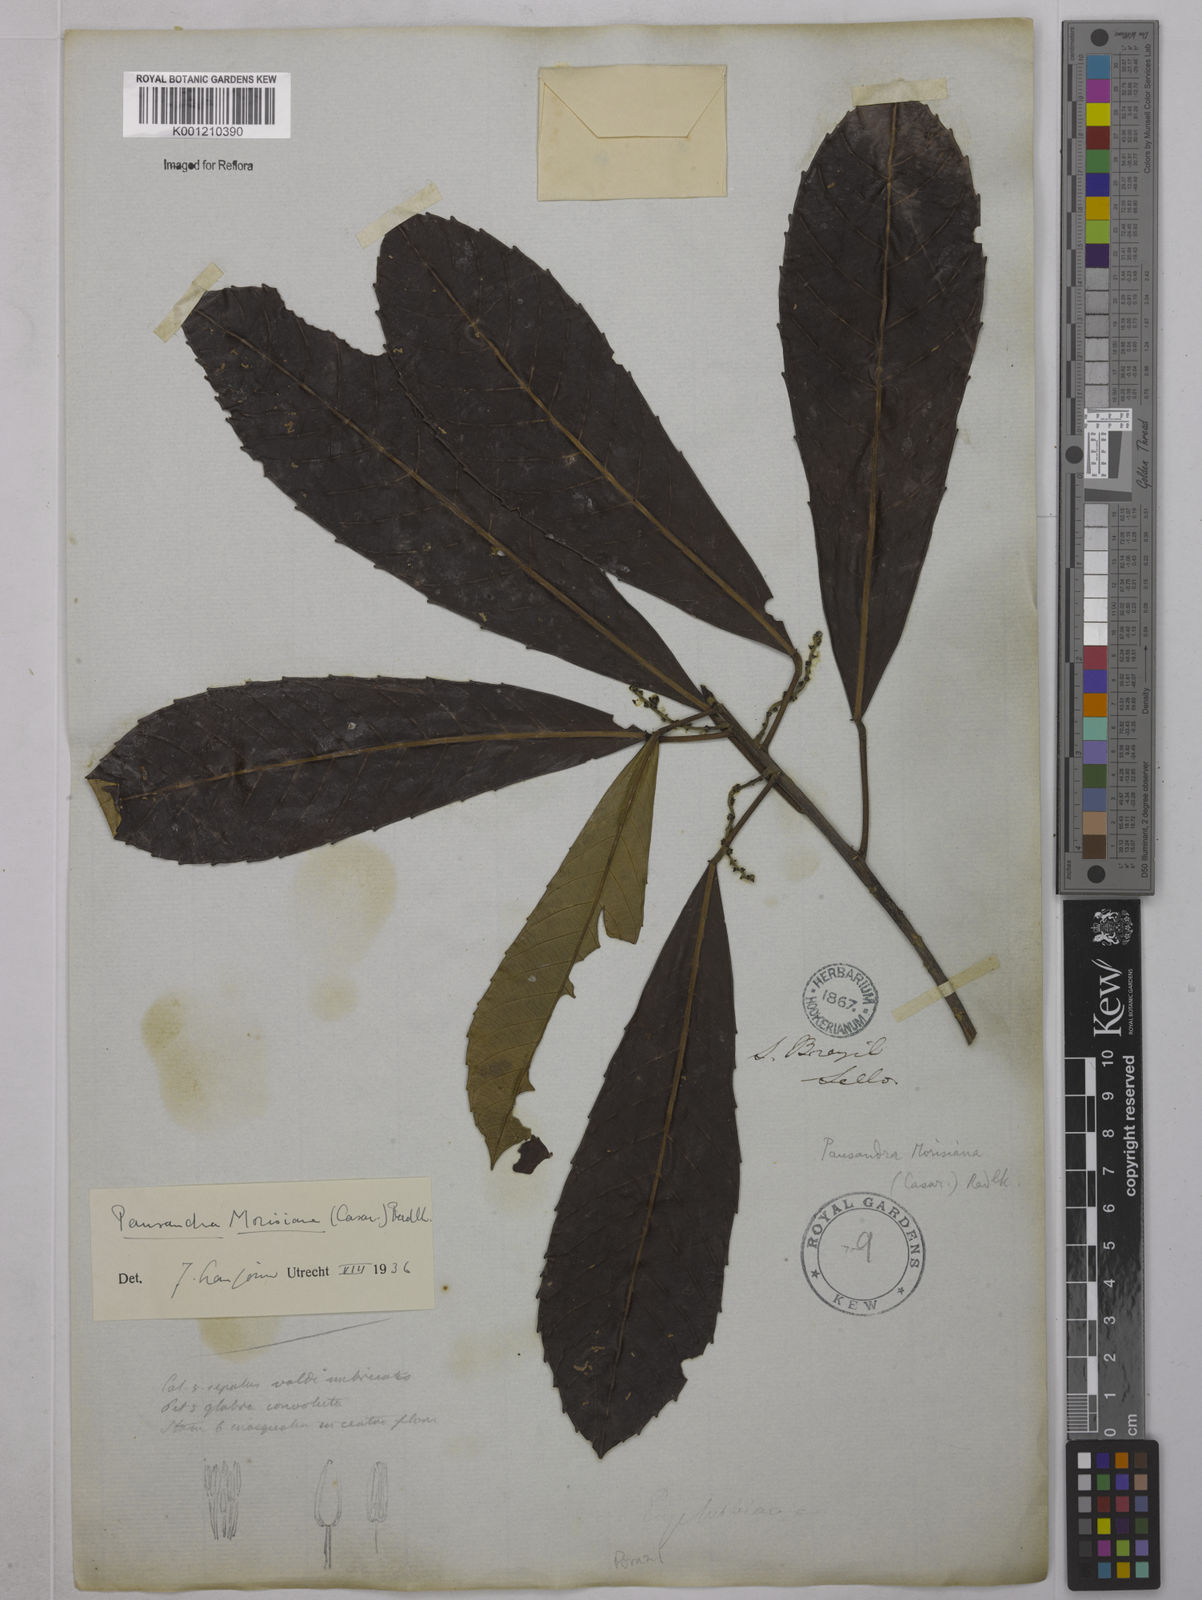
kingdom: Plantae
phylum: Tracheophyta
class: Magnoliopsida
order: Malpighiales
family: Euphorbiaceae
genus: Pausandra
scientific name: Pausandra morisiana
